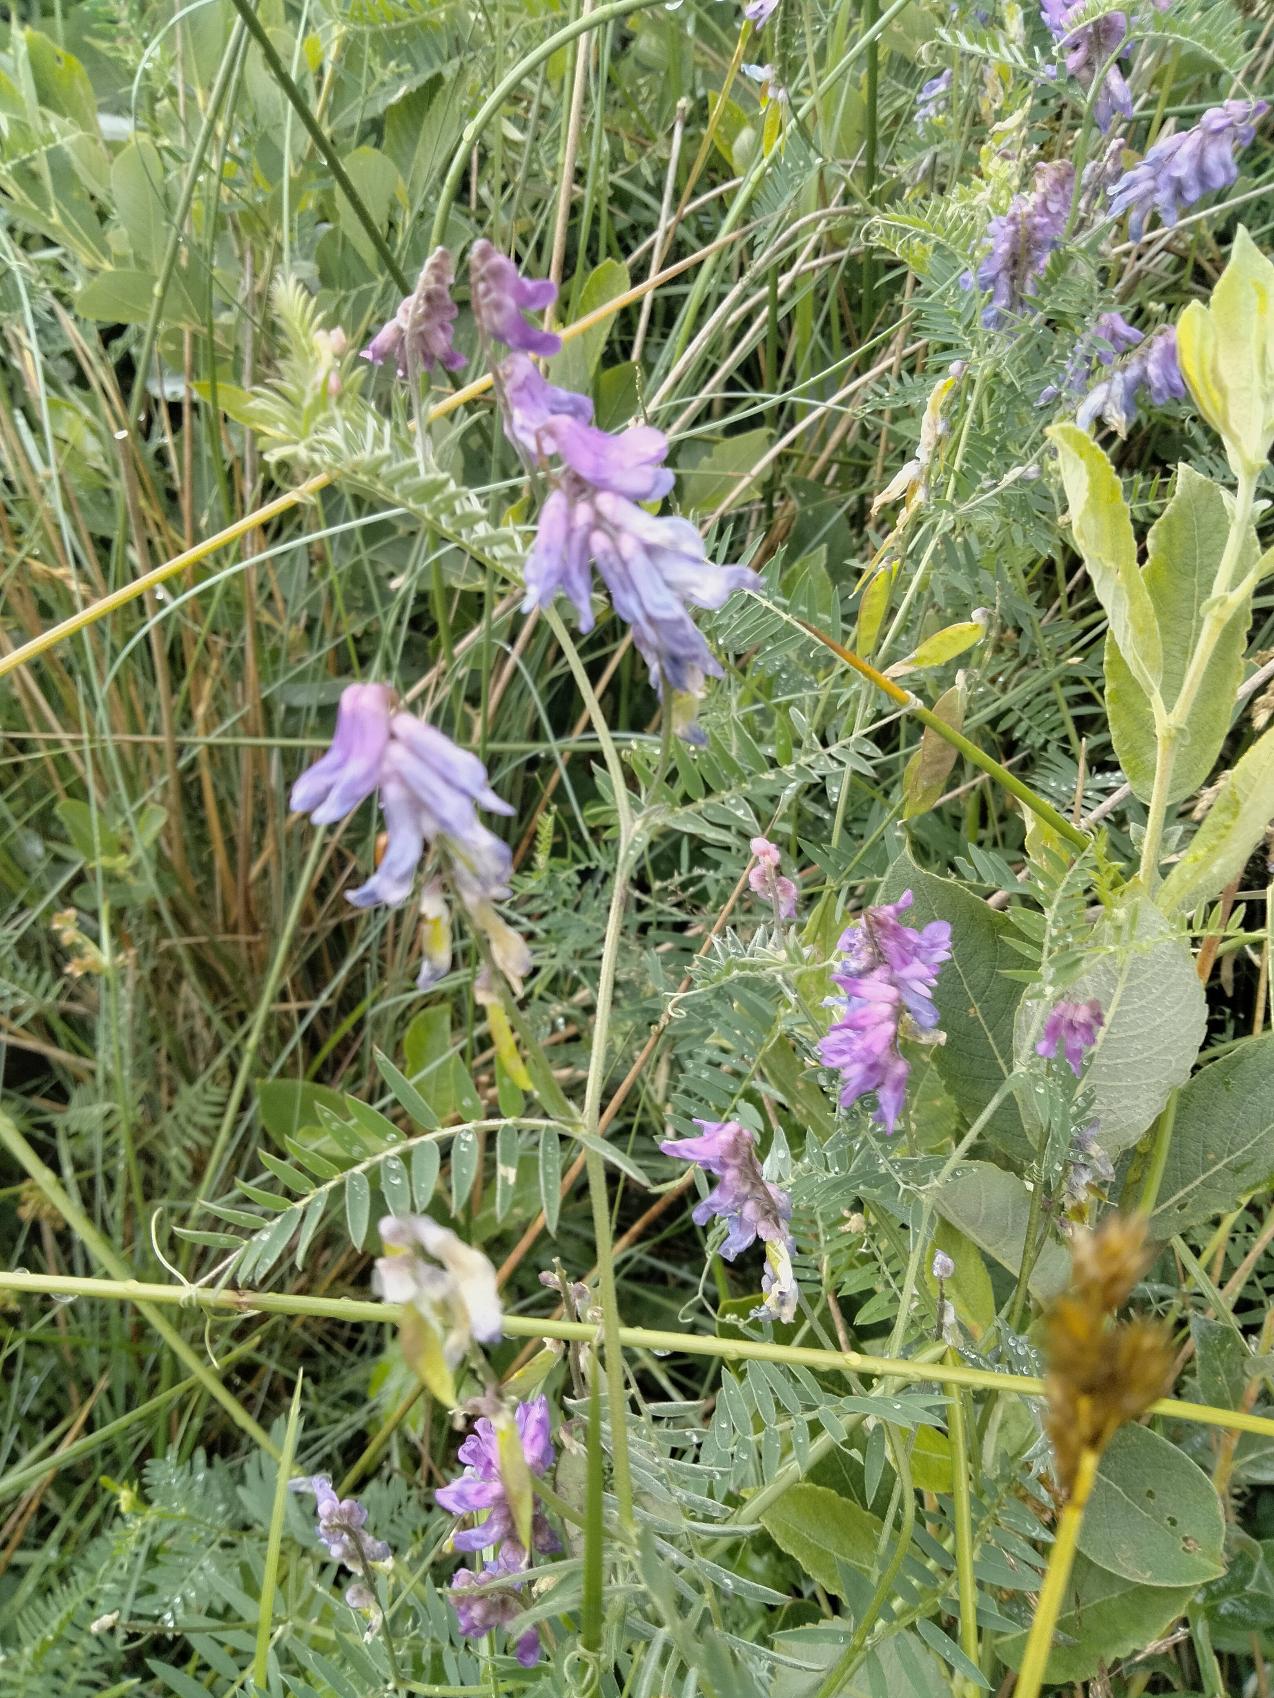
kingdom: Plantae
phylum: Tracheophyta
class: Magnoliopsida
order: Fabales
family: Fabaceae
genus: Vicia
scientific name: Vicia cracca
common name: Muse-vikke
